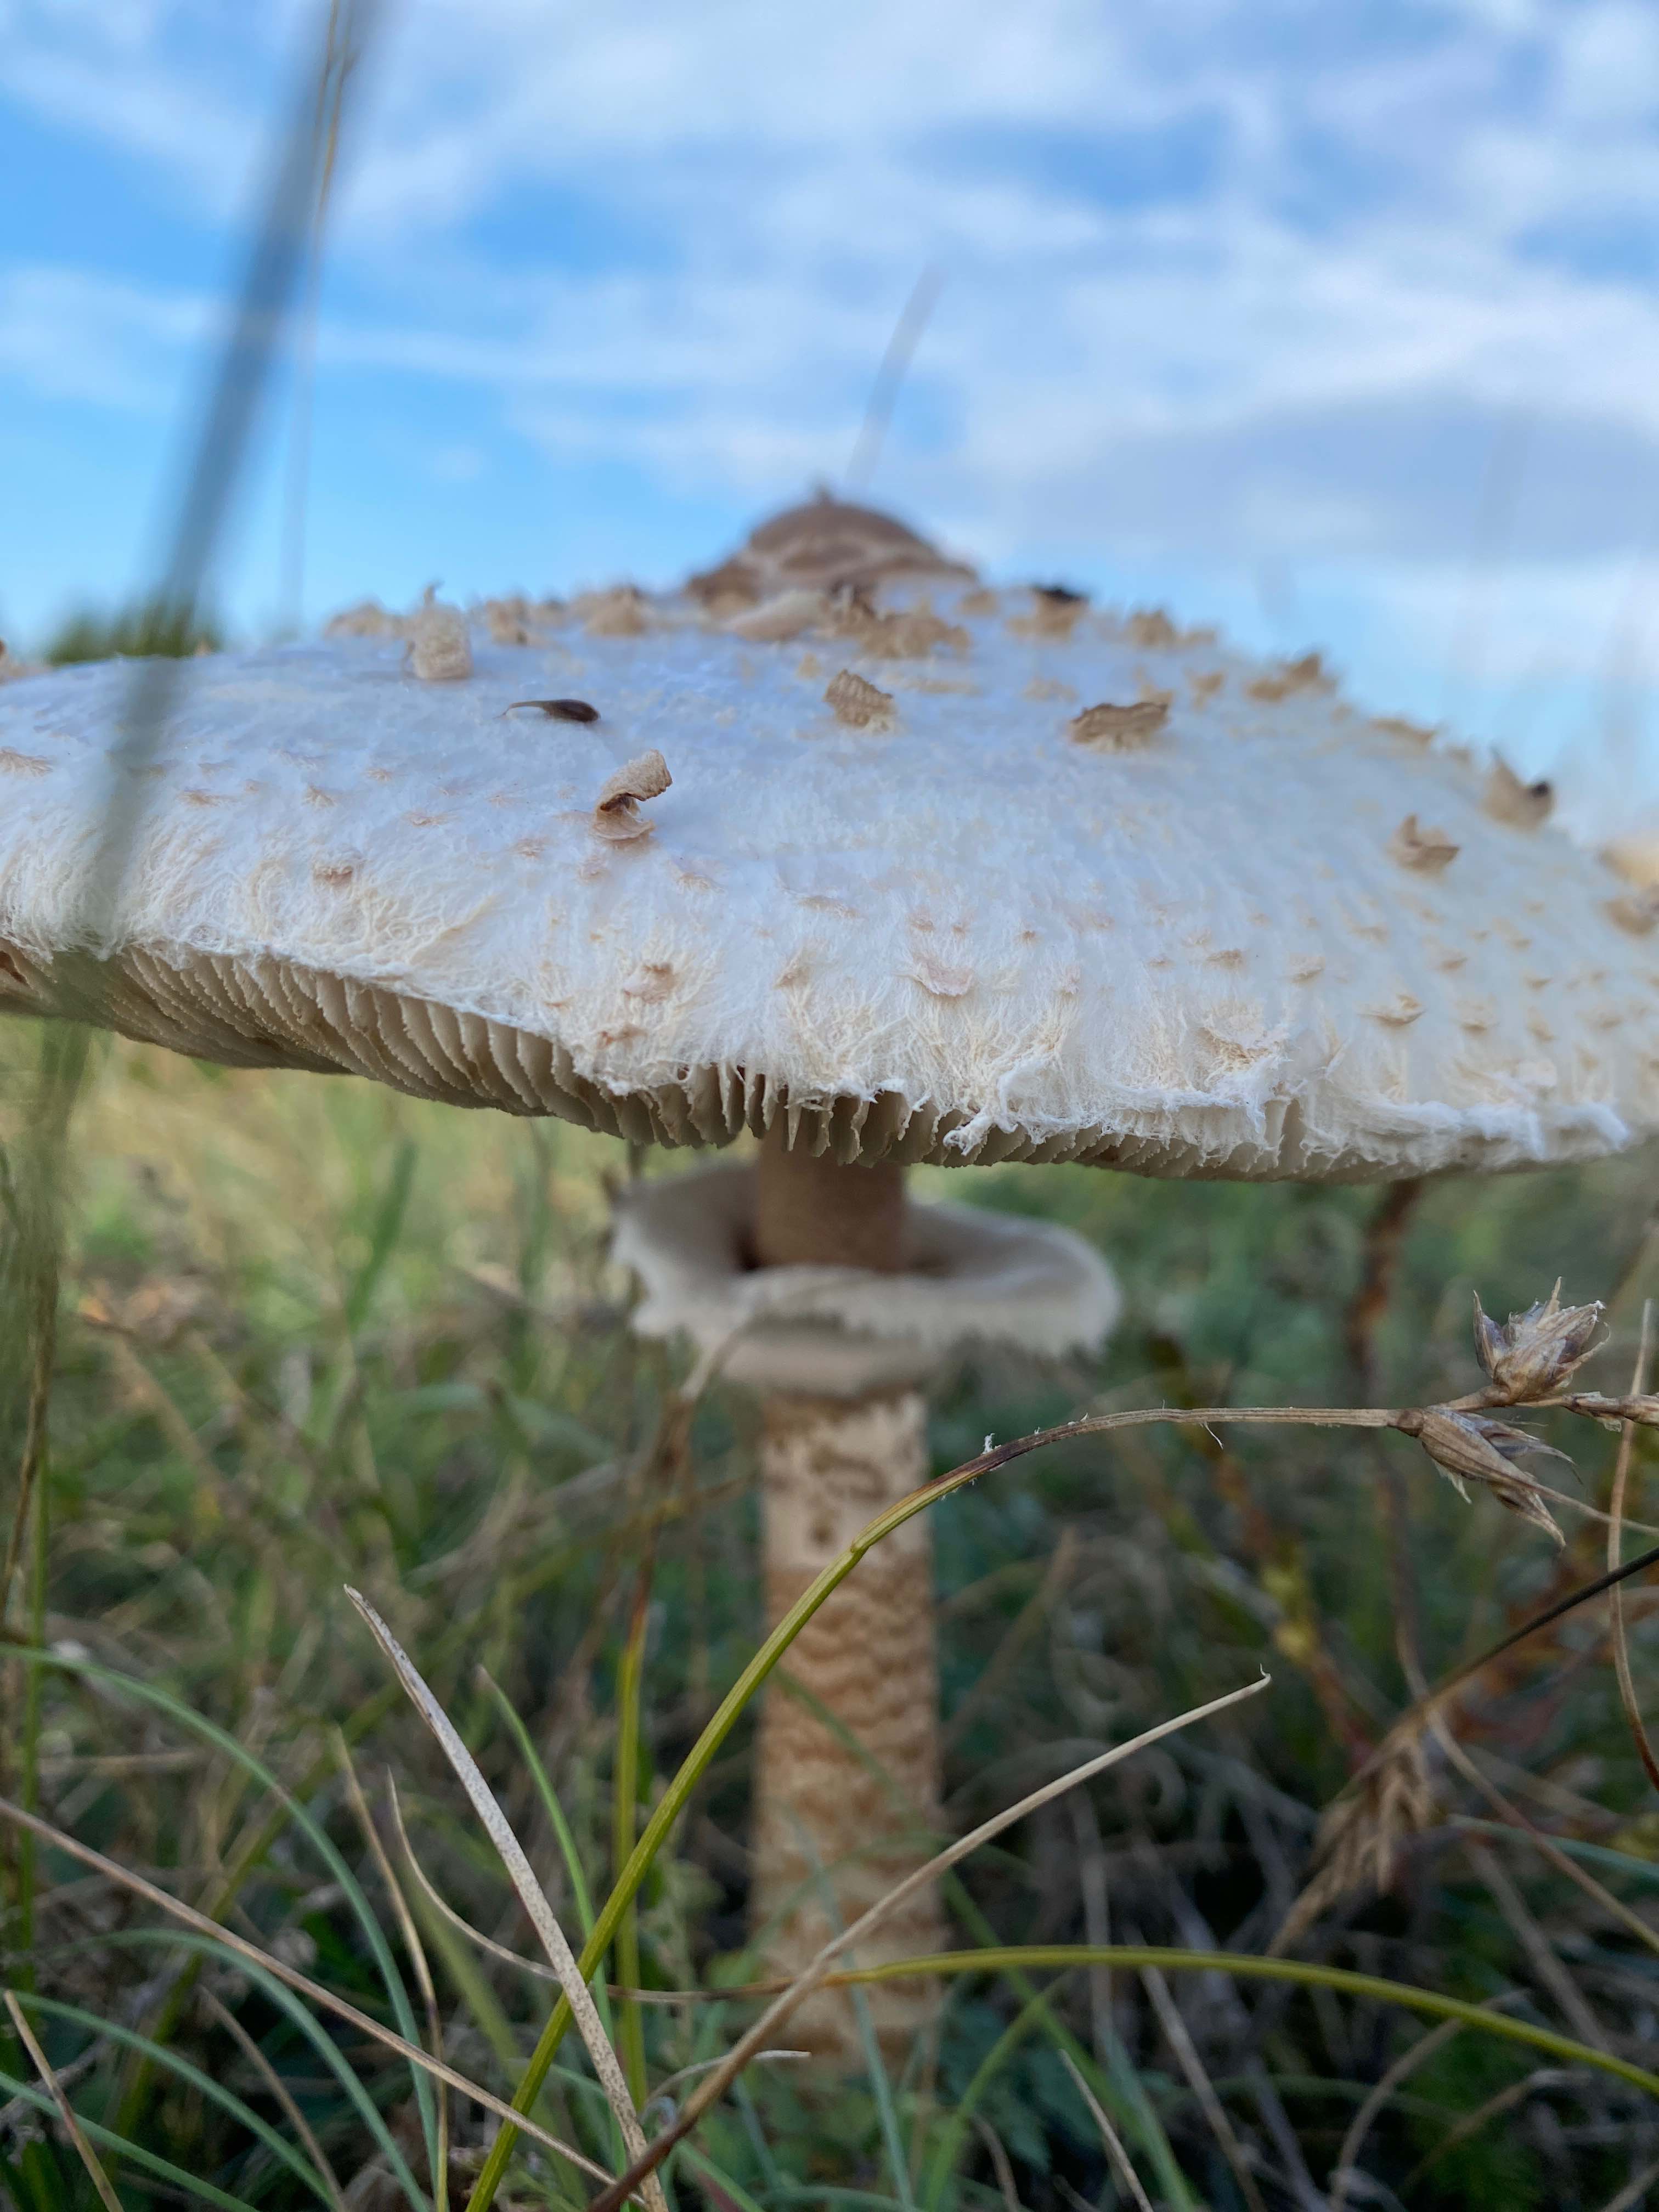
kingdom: Fungi
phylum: Basidiomycota
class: Agaricomycetes
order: Agaricales
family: Agaricaceae
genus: Macrolepiota
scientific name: Macrolepiota procera
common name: stor kæmpeparasolhat
